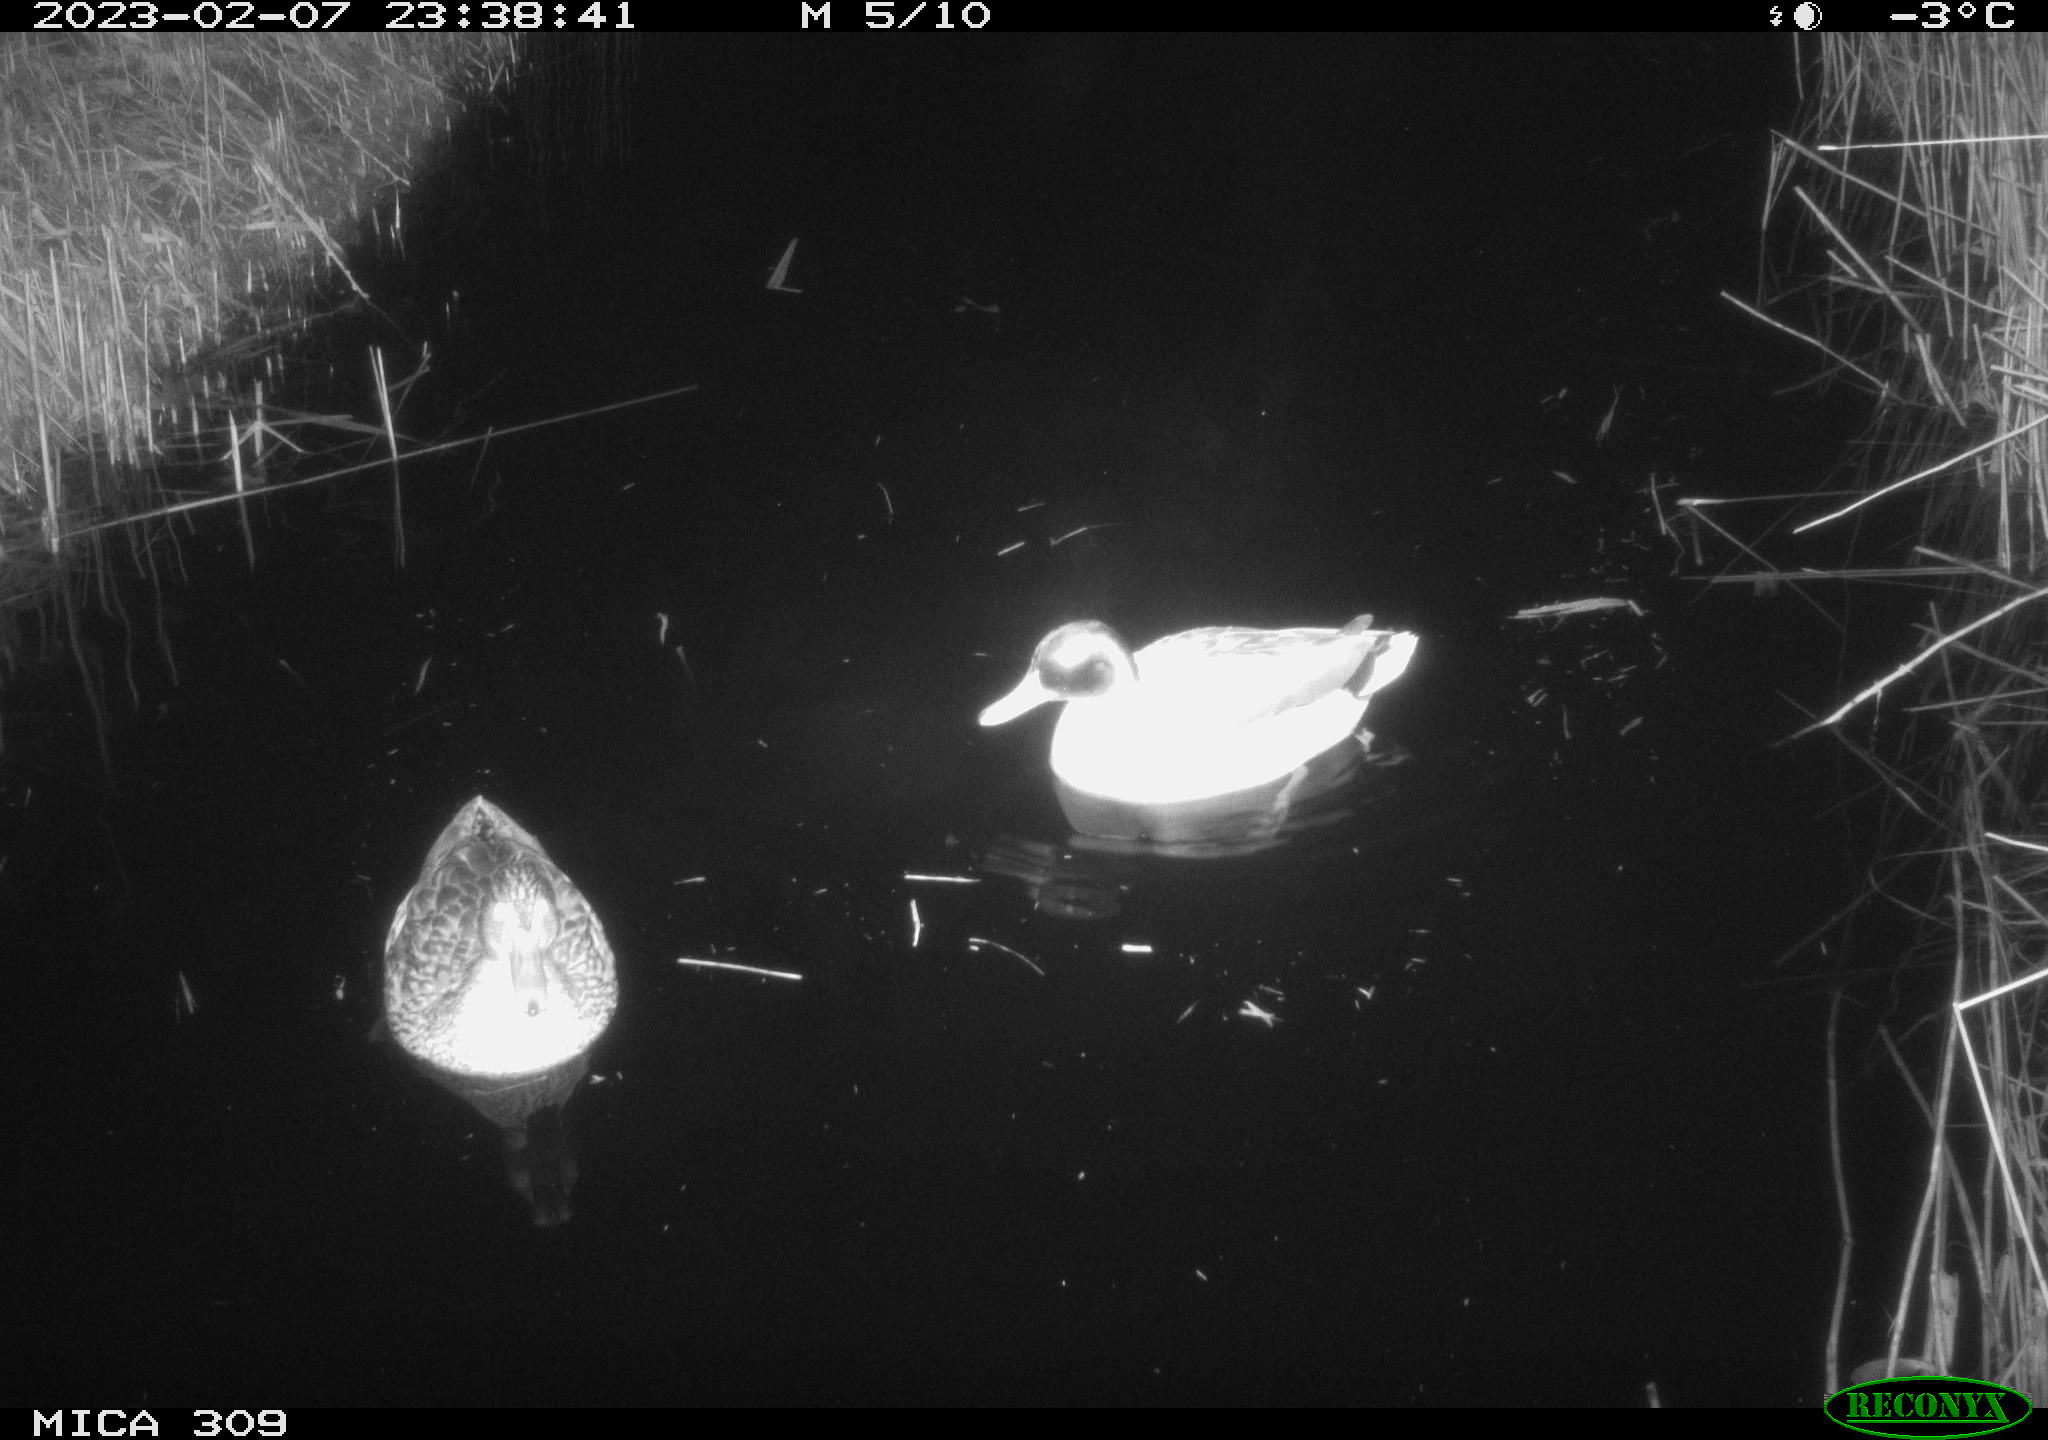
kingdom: Animalia
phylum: Chordata
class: Aves
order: Anseriformes
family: Anatidae
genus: Anas
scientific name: Anas
